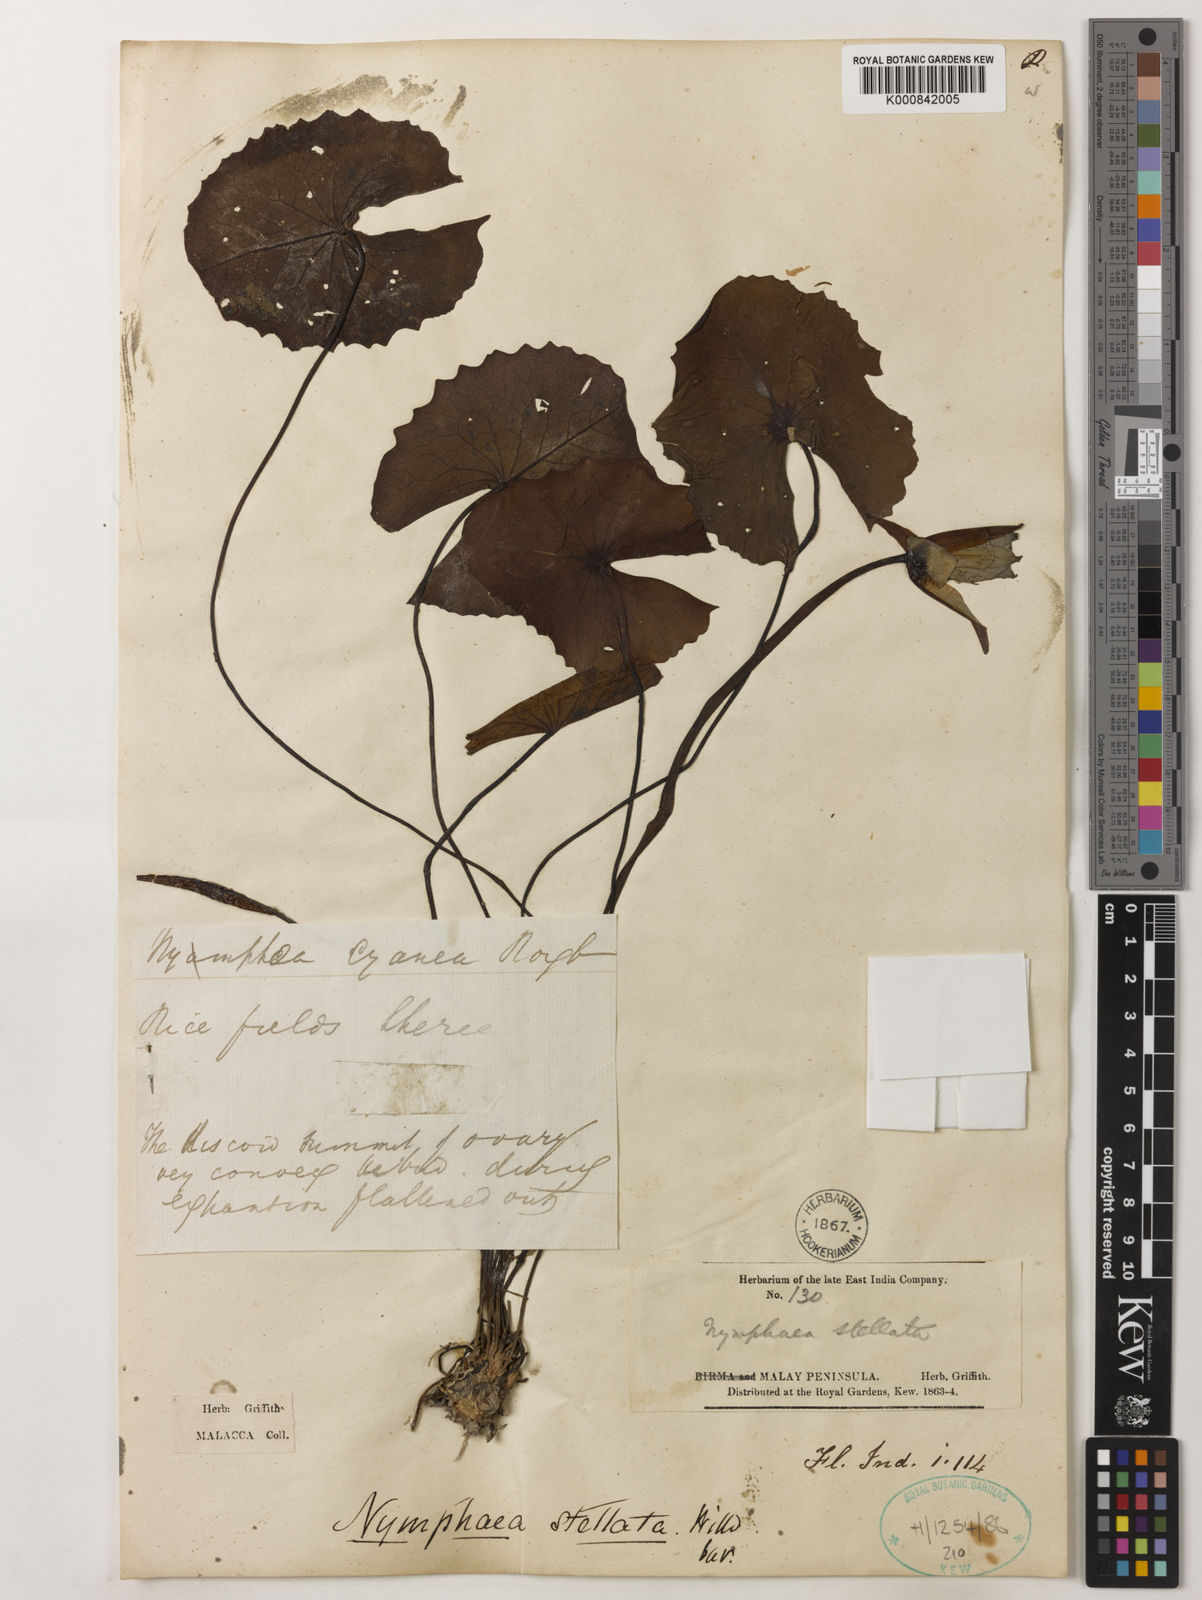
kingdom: Plantae
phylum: Tracheophyta
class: Magnoliopsida
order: Nymphaeales
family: Nymphaeaceae
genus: Nymphaea
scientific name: Nymphaea nouchali
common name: Blue lotus
